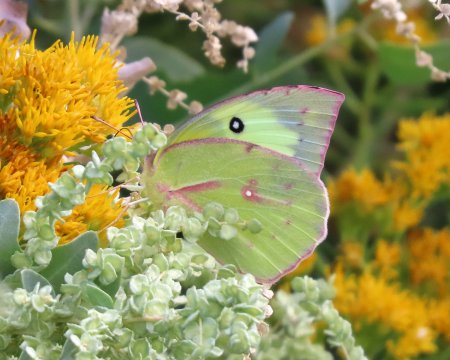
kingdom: Animalia
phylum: Arthropoda
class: Insecta
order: Lepidoptera
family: Pieridae
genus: Zerene
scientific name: Zerene cesonia
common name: Southern Dogface
